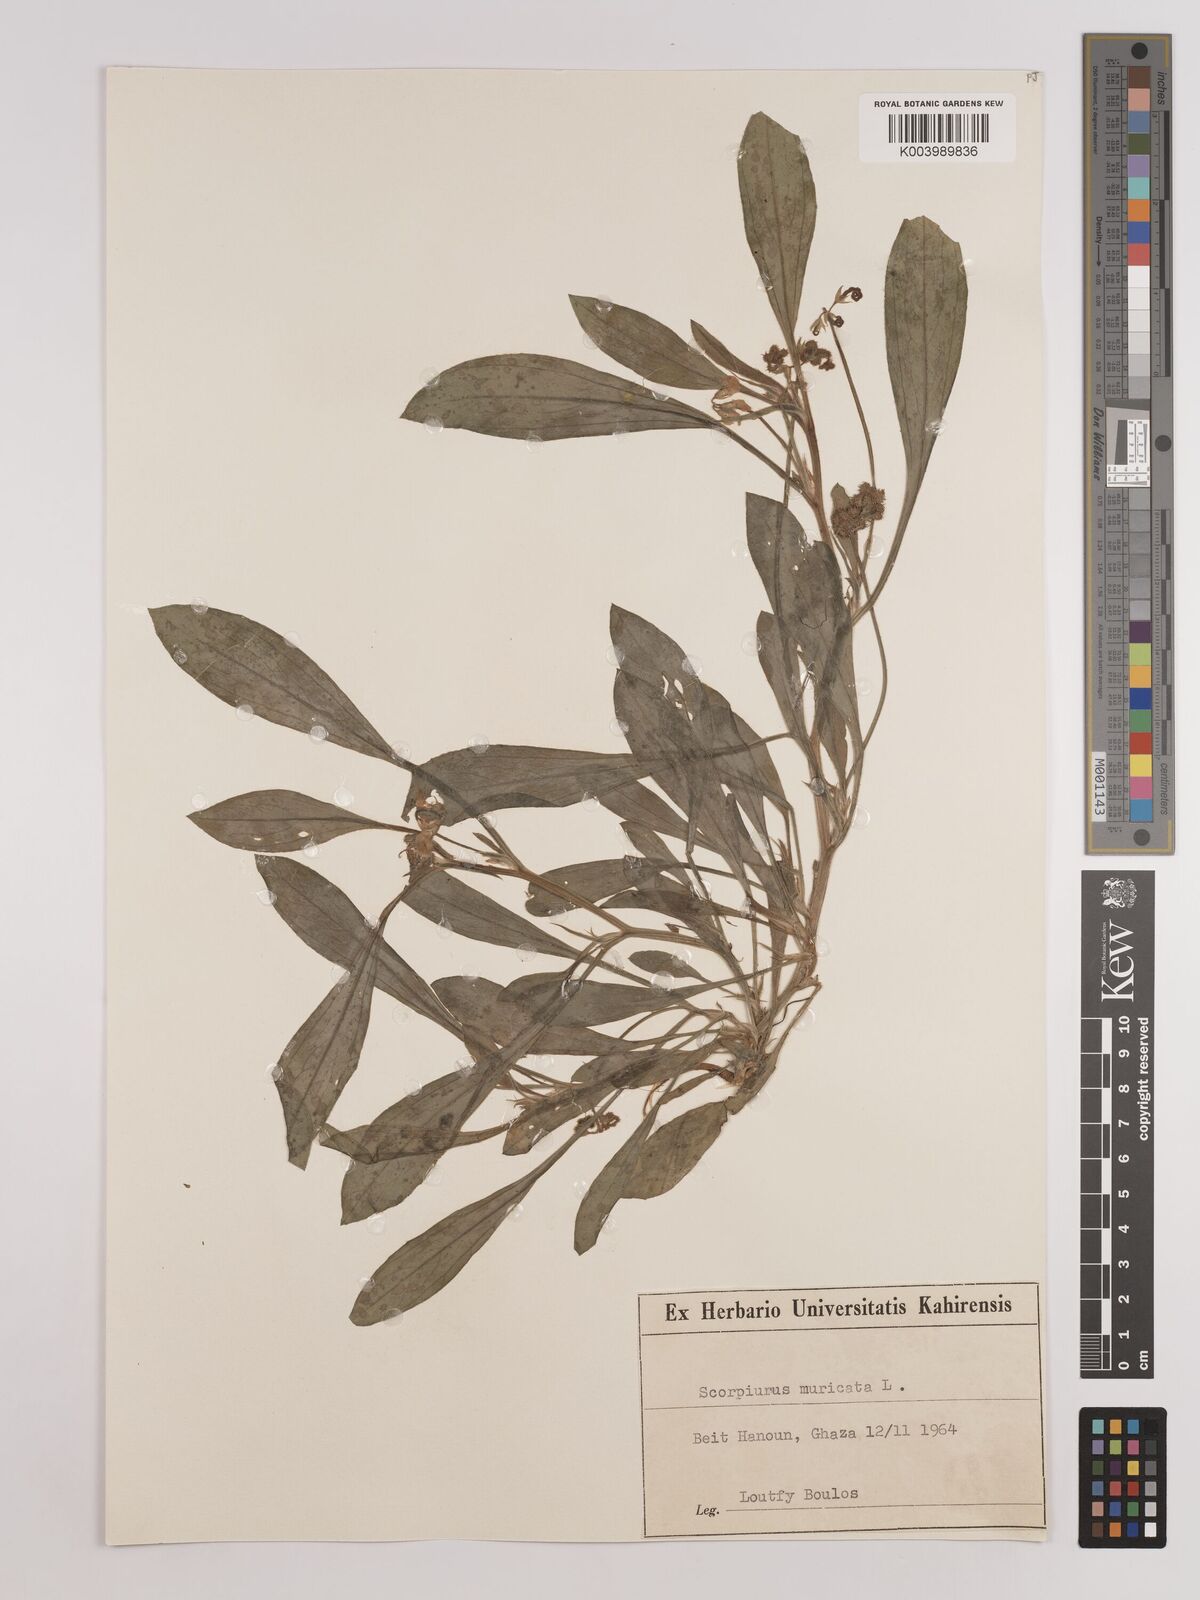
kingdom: Plantae
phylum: Tracheophyta
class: Magnoliopsida
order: Fabales
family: Fabaceae
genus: Scorpiurus
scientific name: Scorpiurus muricatus
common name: Caterpillar-plant
